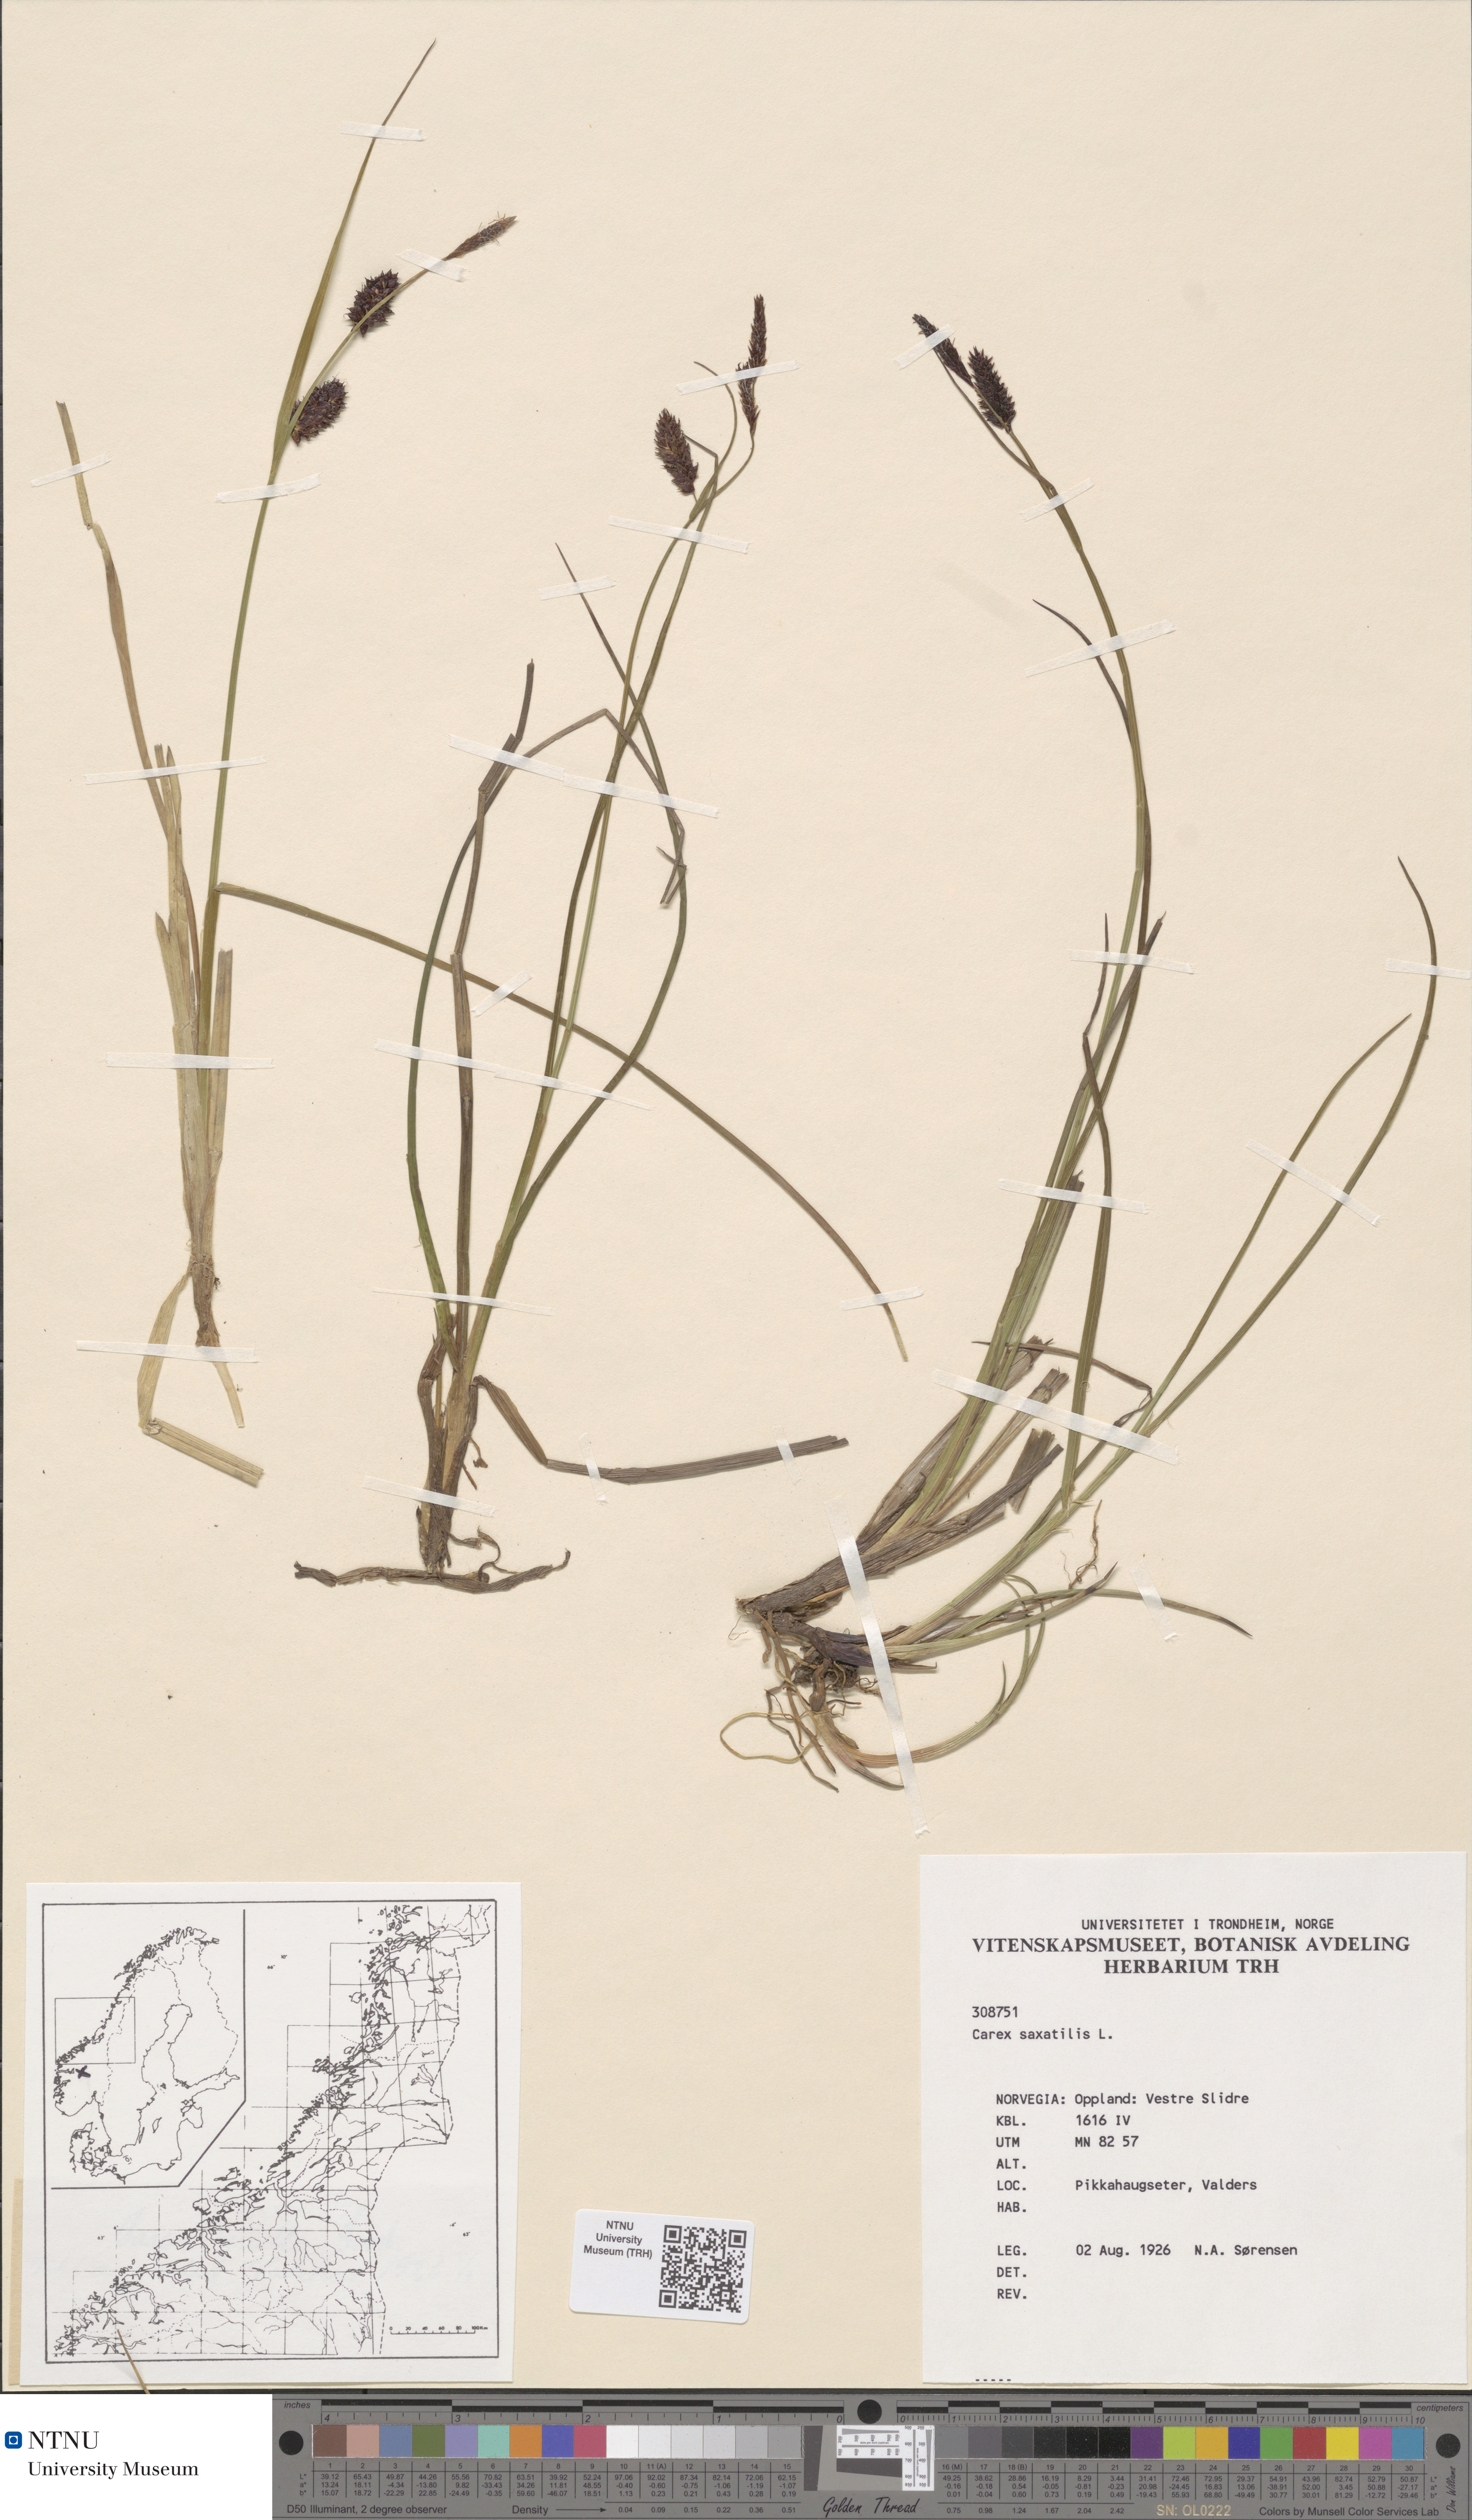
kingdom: Plantae
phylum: Tracheophyta
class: Liliopsida
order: Poales
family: Cyperaceae
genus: Carex
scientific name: Carex saxatilis
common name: Russet sedge
